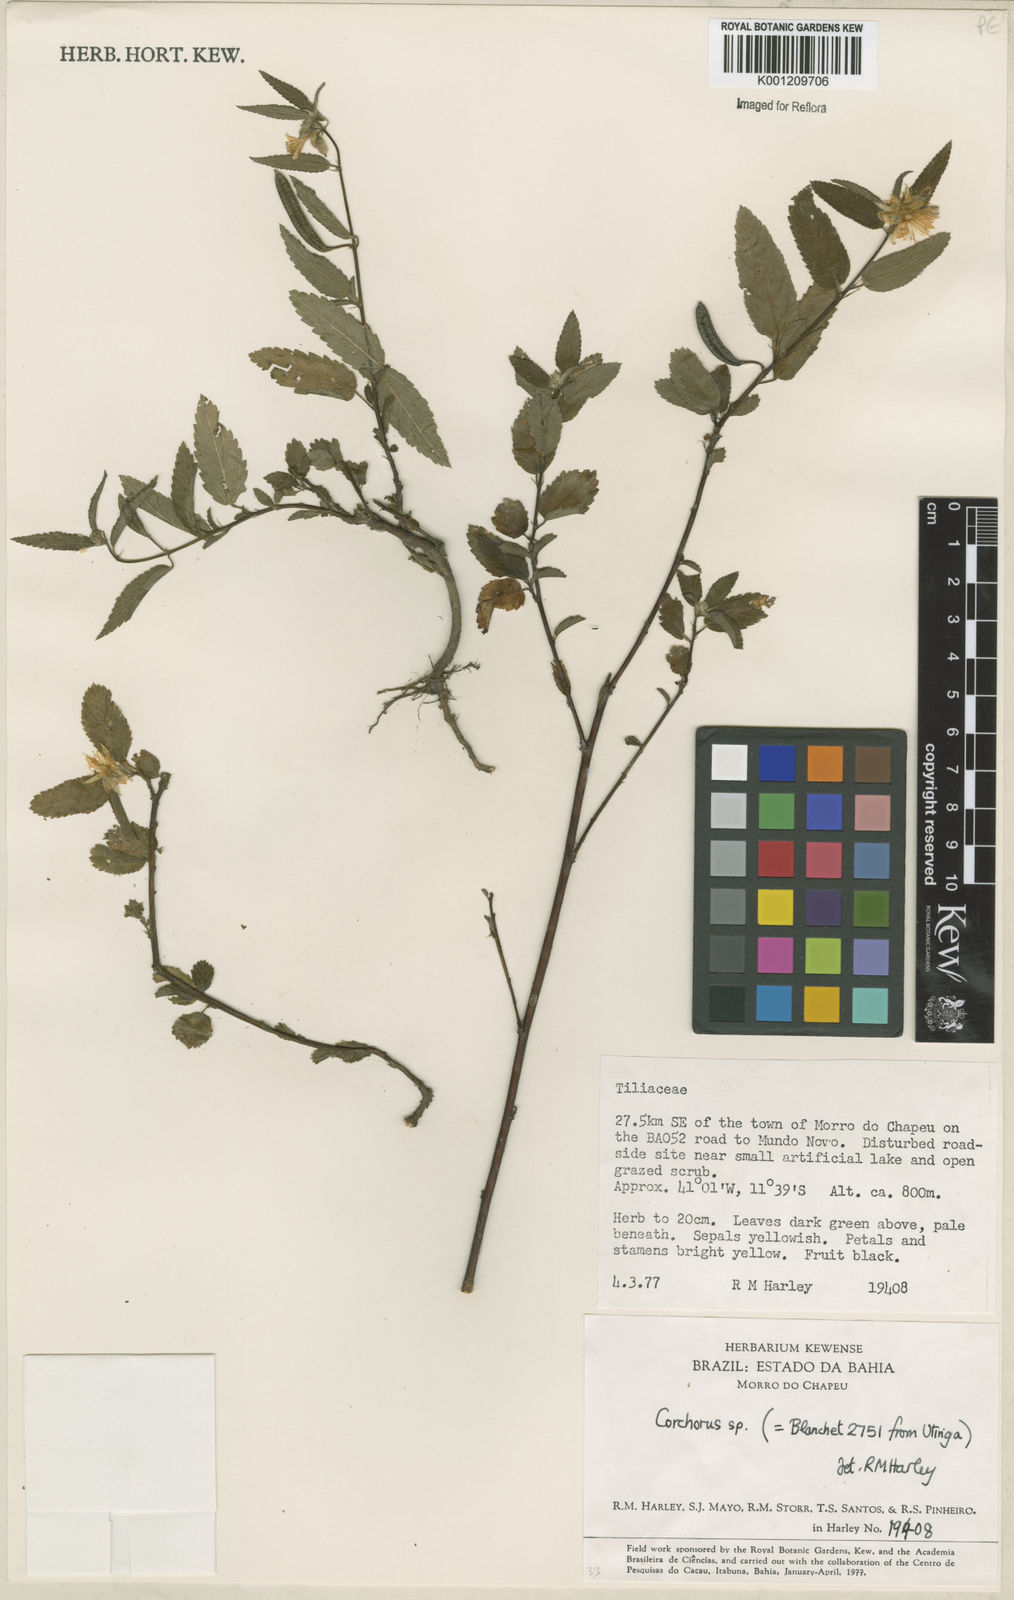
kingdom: Plantae
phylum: Tracheophyta
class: Magnoliopsida
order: Malvales
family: Malvaceae
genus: Corchorus
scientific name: Corchorus
